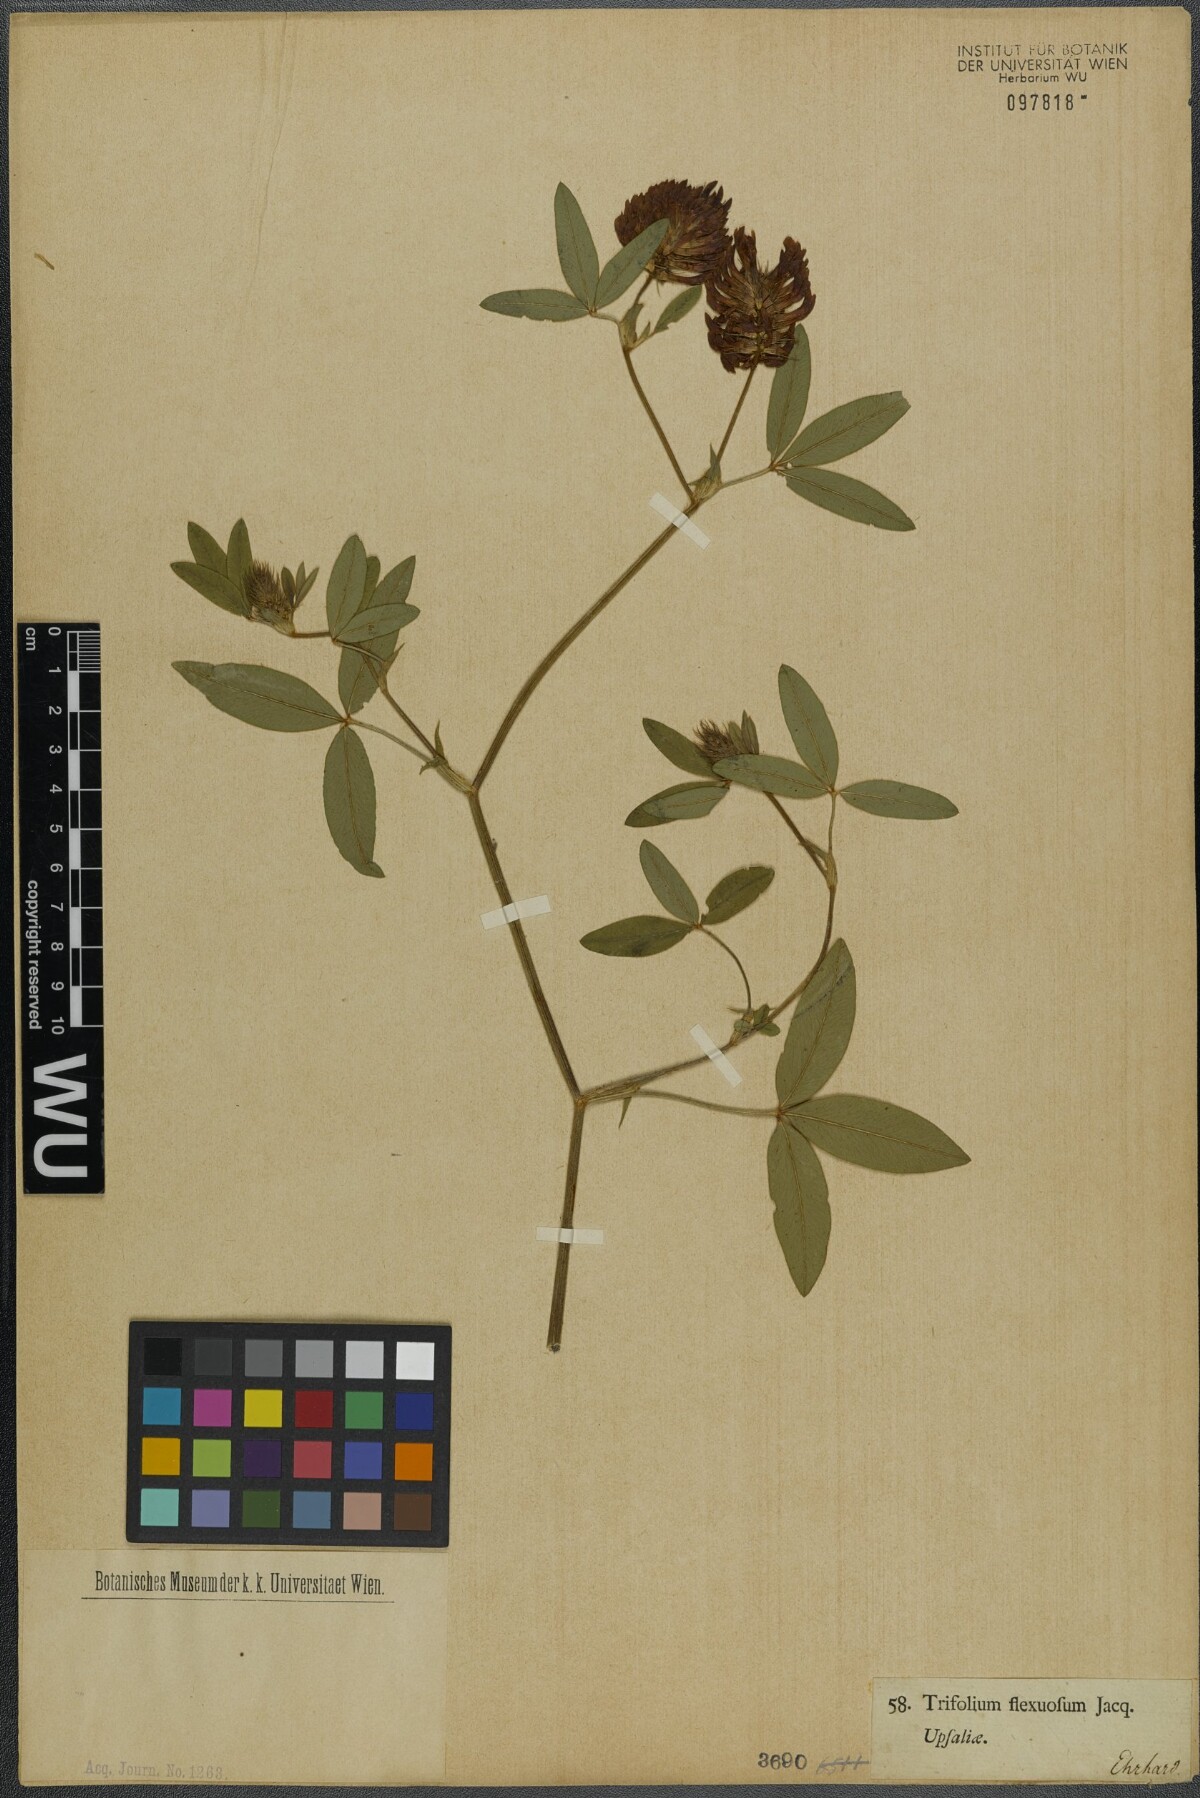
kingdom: Plantae
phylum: Tracheophyta
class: Magnoliopsida
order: Fabales
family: Fabaceae
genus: Trifolium
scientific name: Trifolium medium
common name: Zigzag clover
